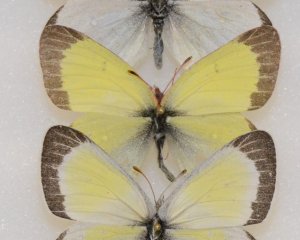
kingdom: Animalia
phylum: Arthropoda
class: Insecta
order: Lepidoptera
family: Pieridae
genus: Colias
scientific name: Colias pelidne
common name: Pelidne Sulphur
